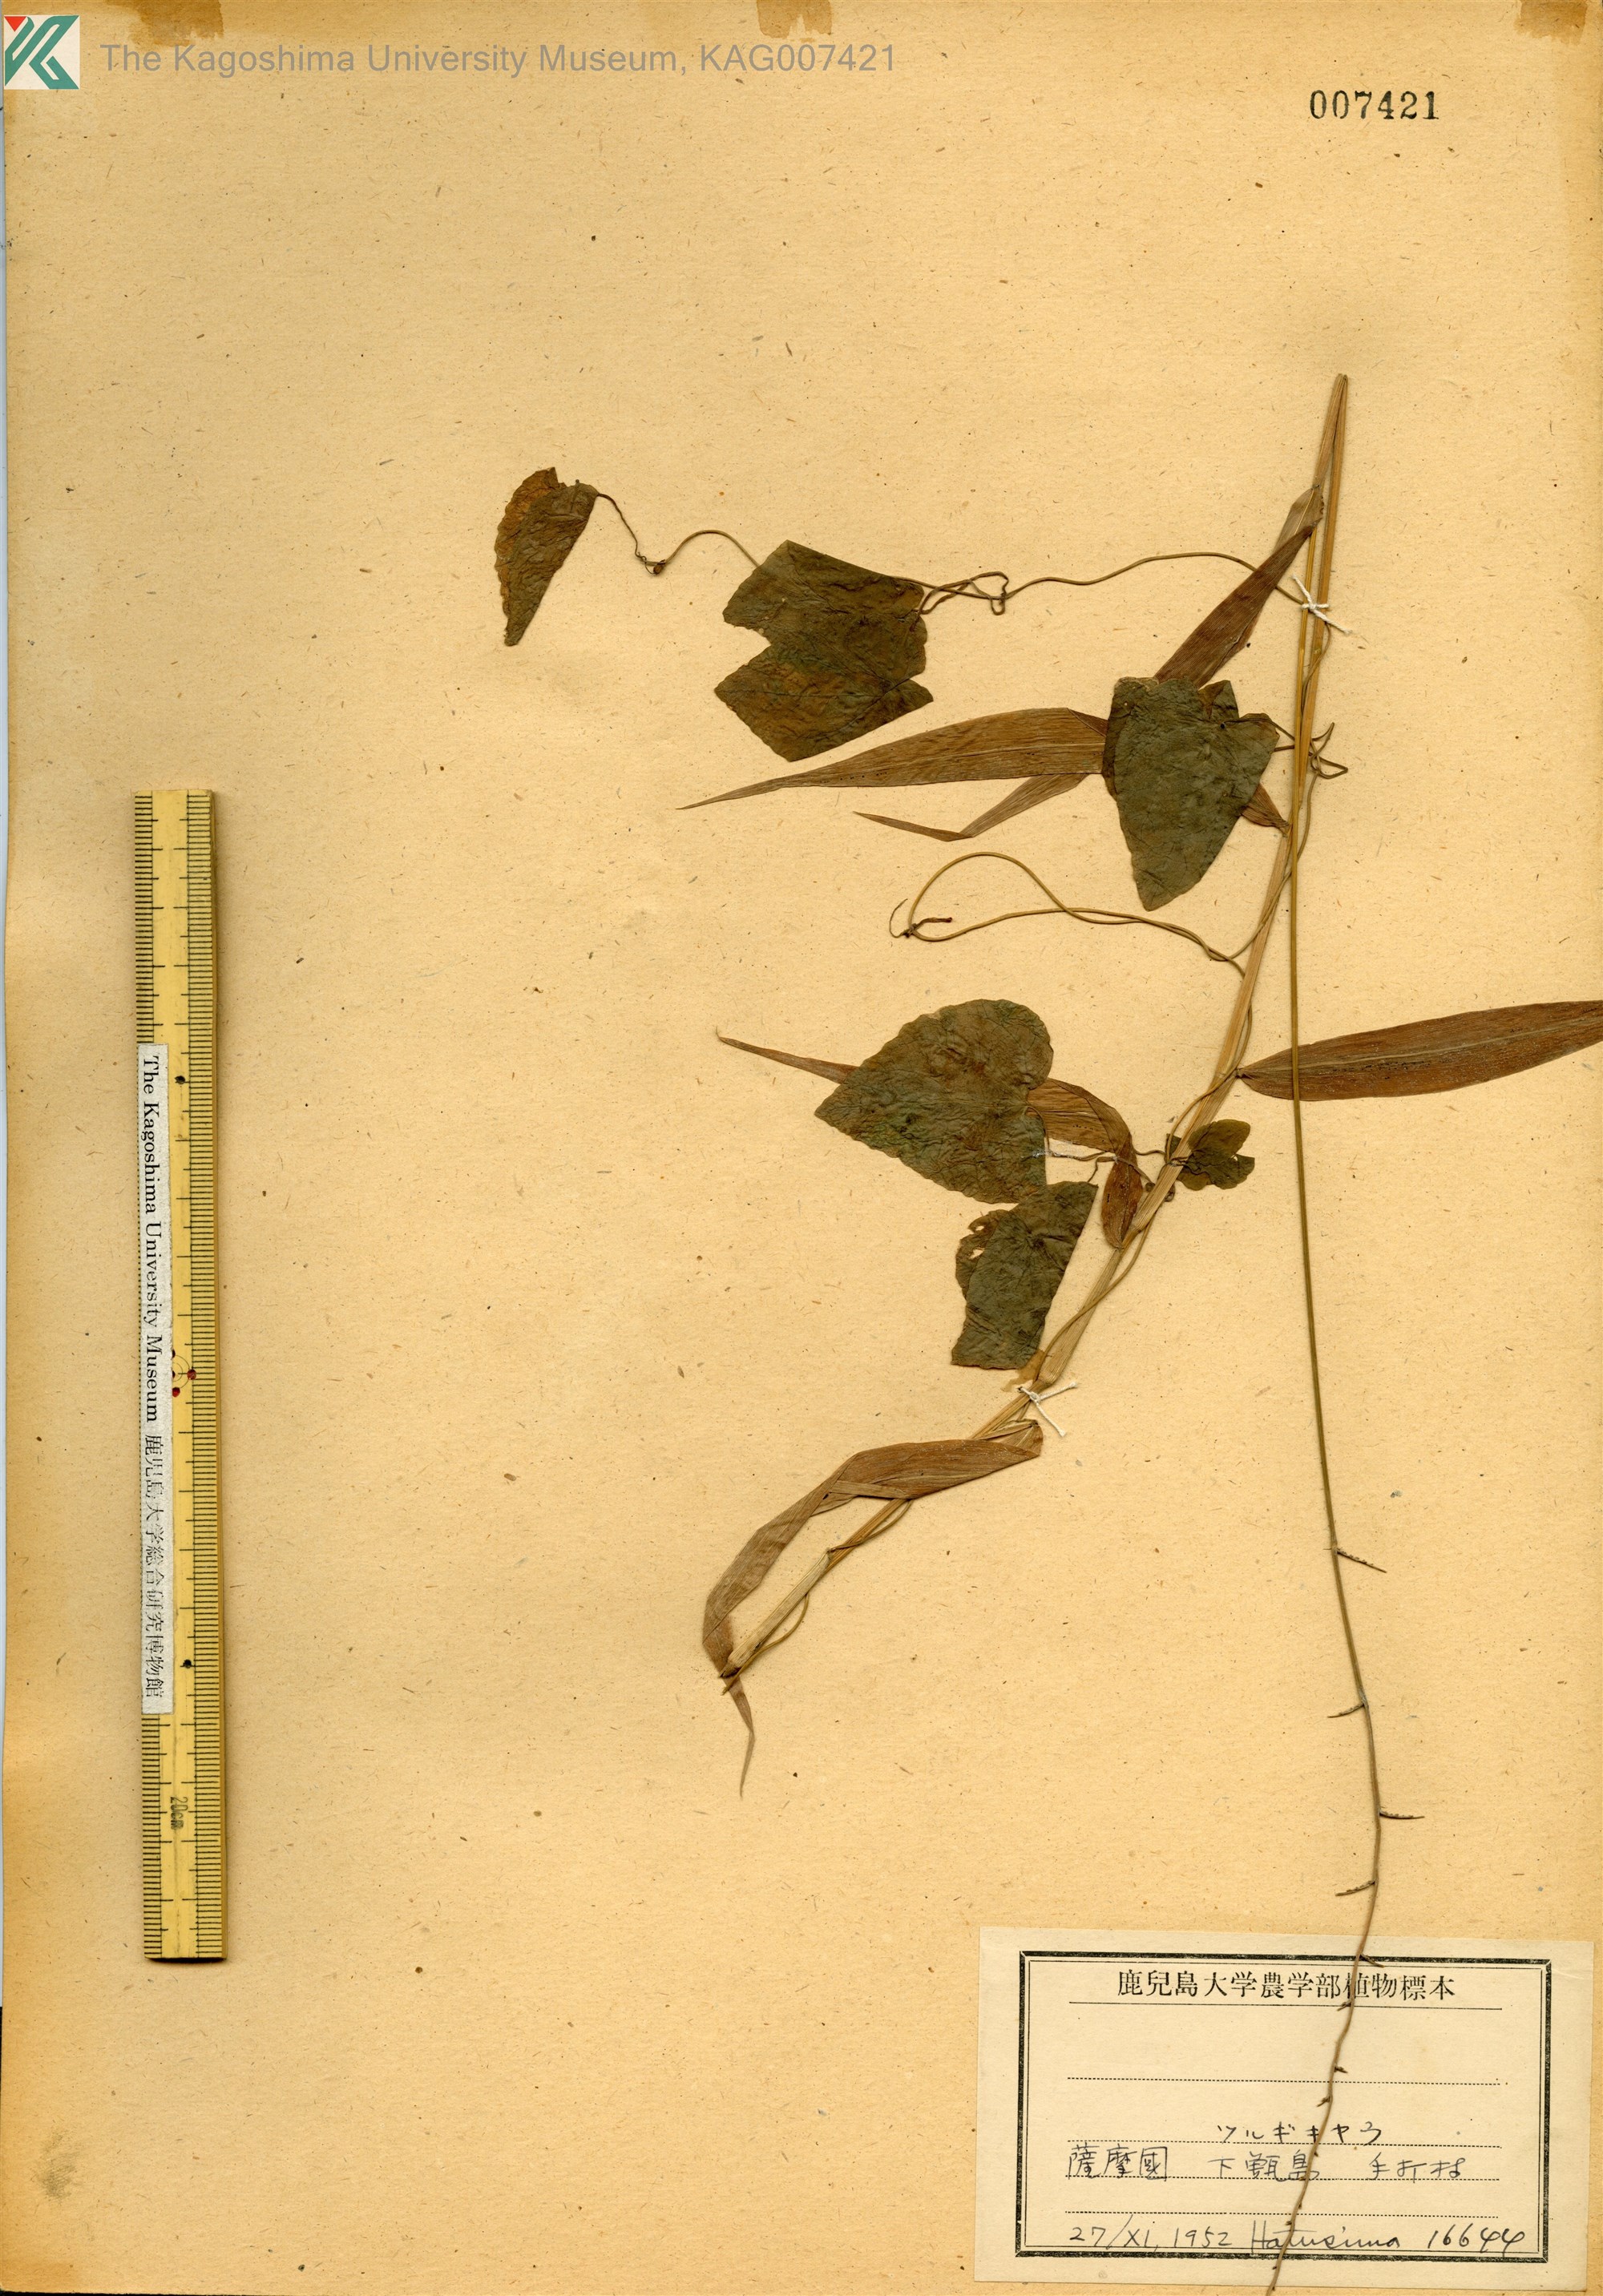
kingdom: Plantae
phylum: Tracheophyta
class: Magnoliopsida
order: Asterales
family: Campanulaceae
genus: Codonopsis
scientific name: Codonopsis javanica
